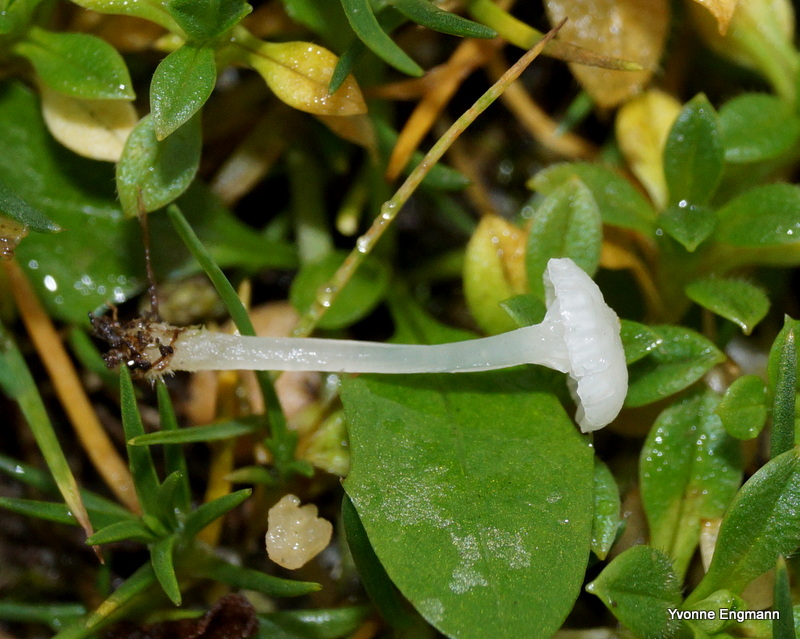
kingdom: Fungi
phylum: Basidiomycota
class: Agaricomycetes
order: Agaricales
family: Mycenaceae
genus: Atheniella
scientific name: Atheniella delectabilis
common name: nitrøs huesvamp
